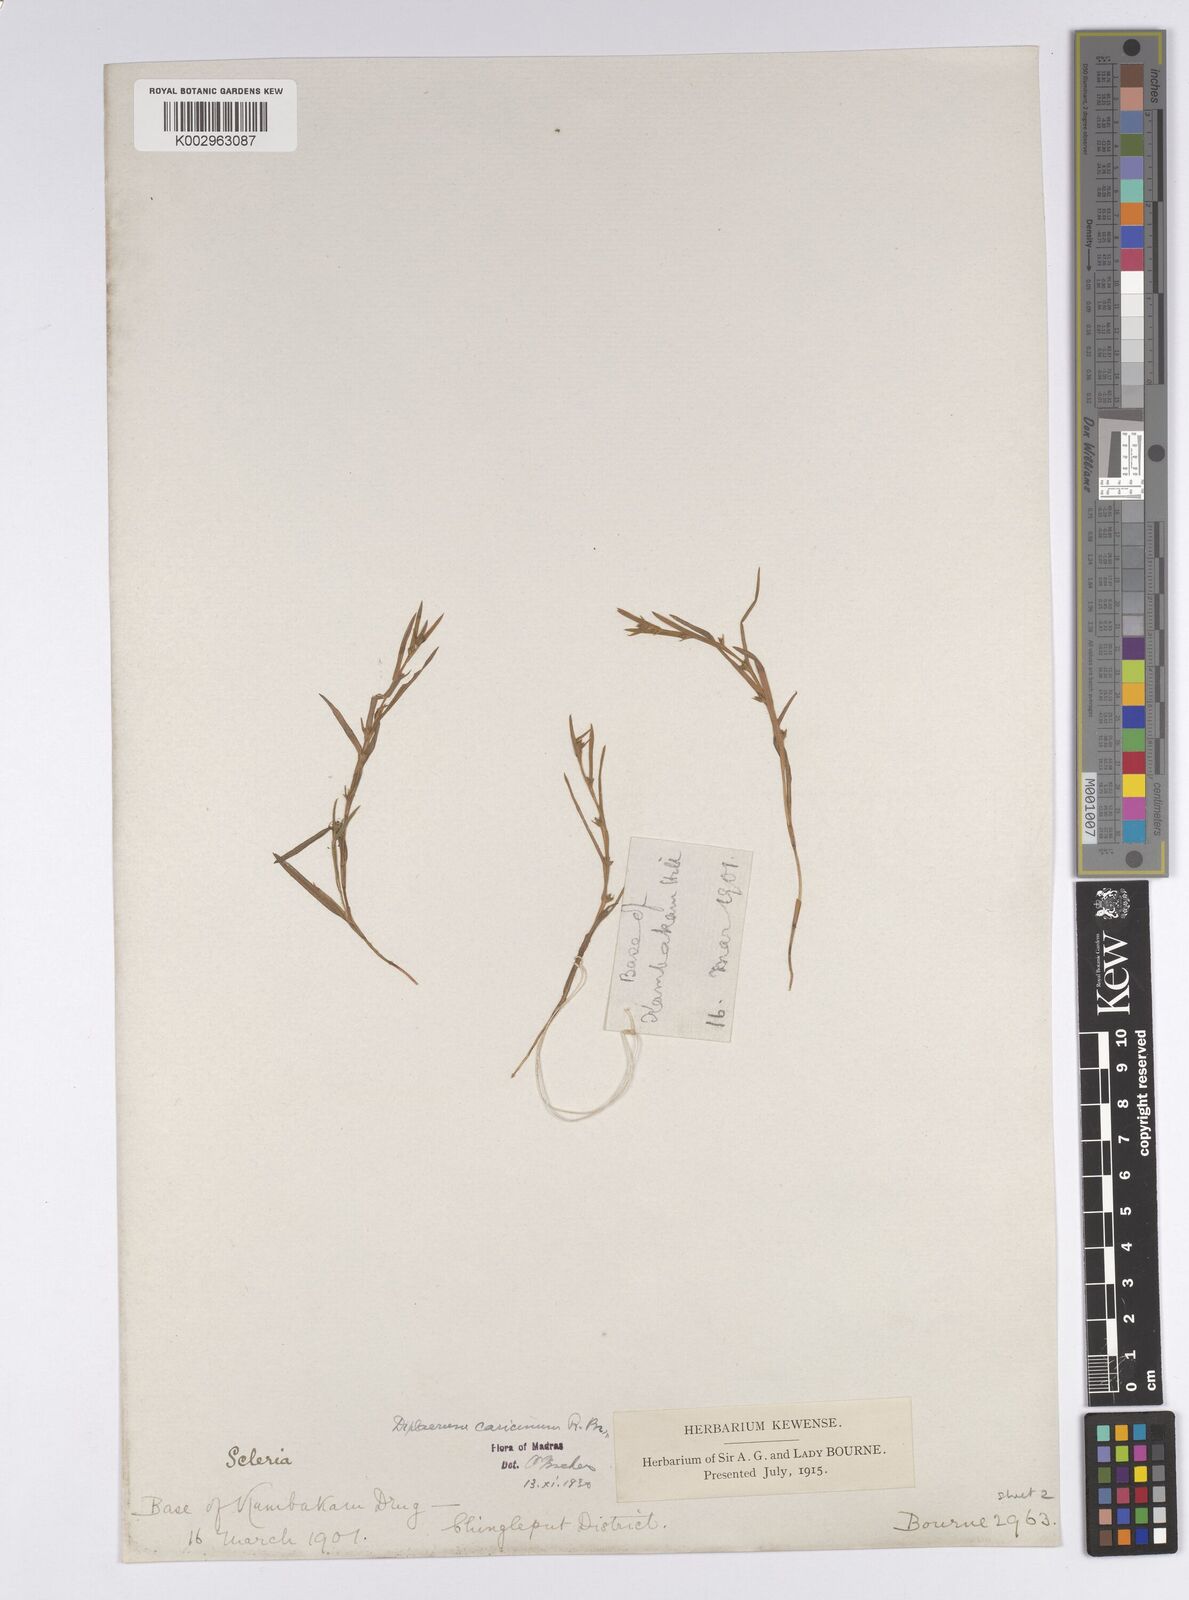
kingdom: Plantae
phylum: Tracheophyta
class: Liliopsida
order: Poales
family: Cyperaceae
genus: Diplacrum
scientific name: Diplacrum caricinum
